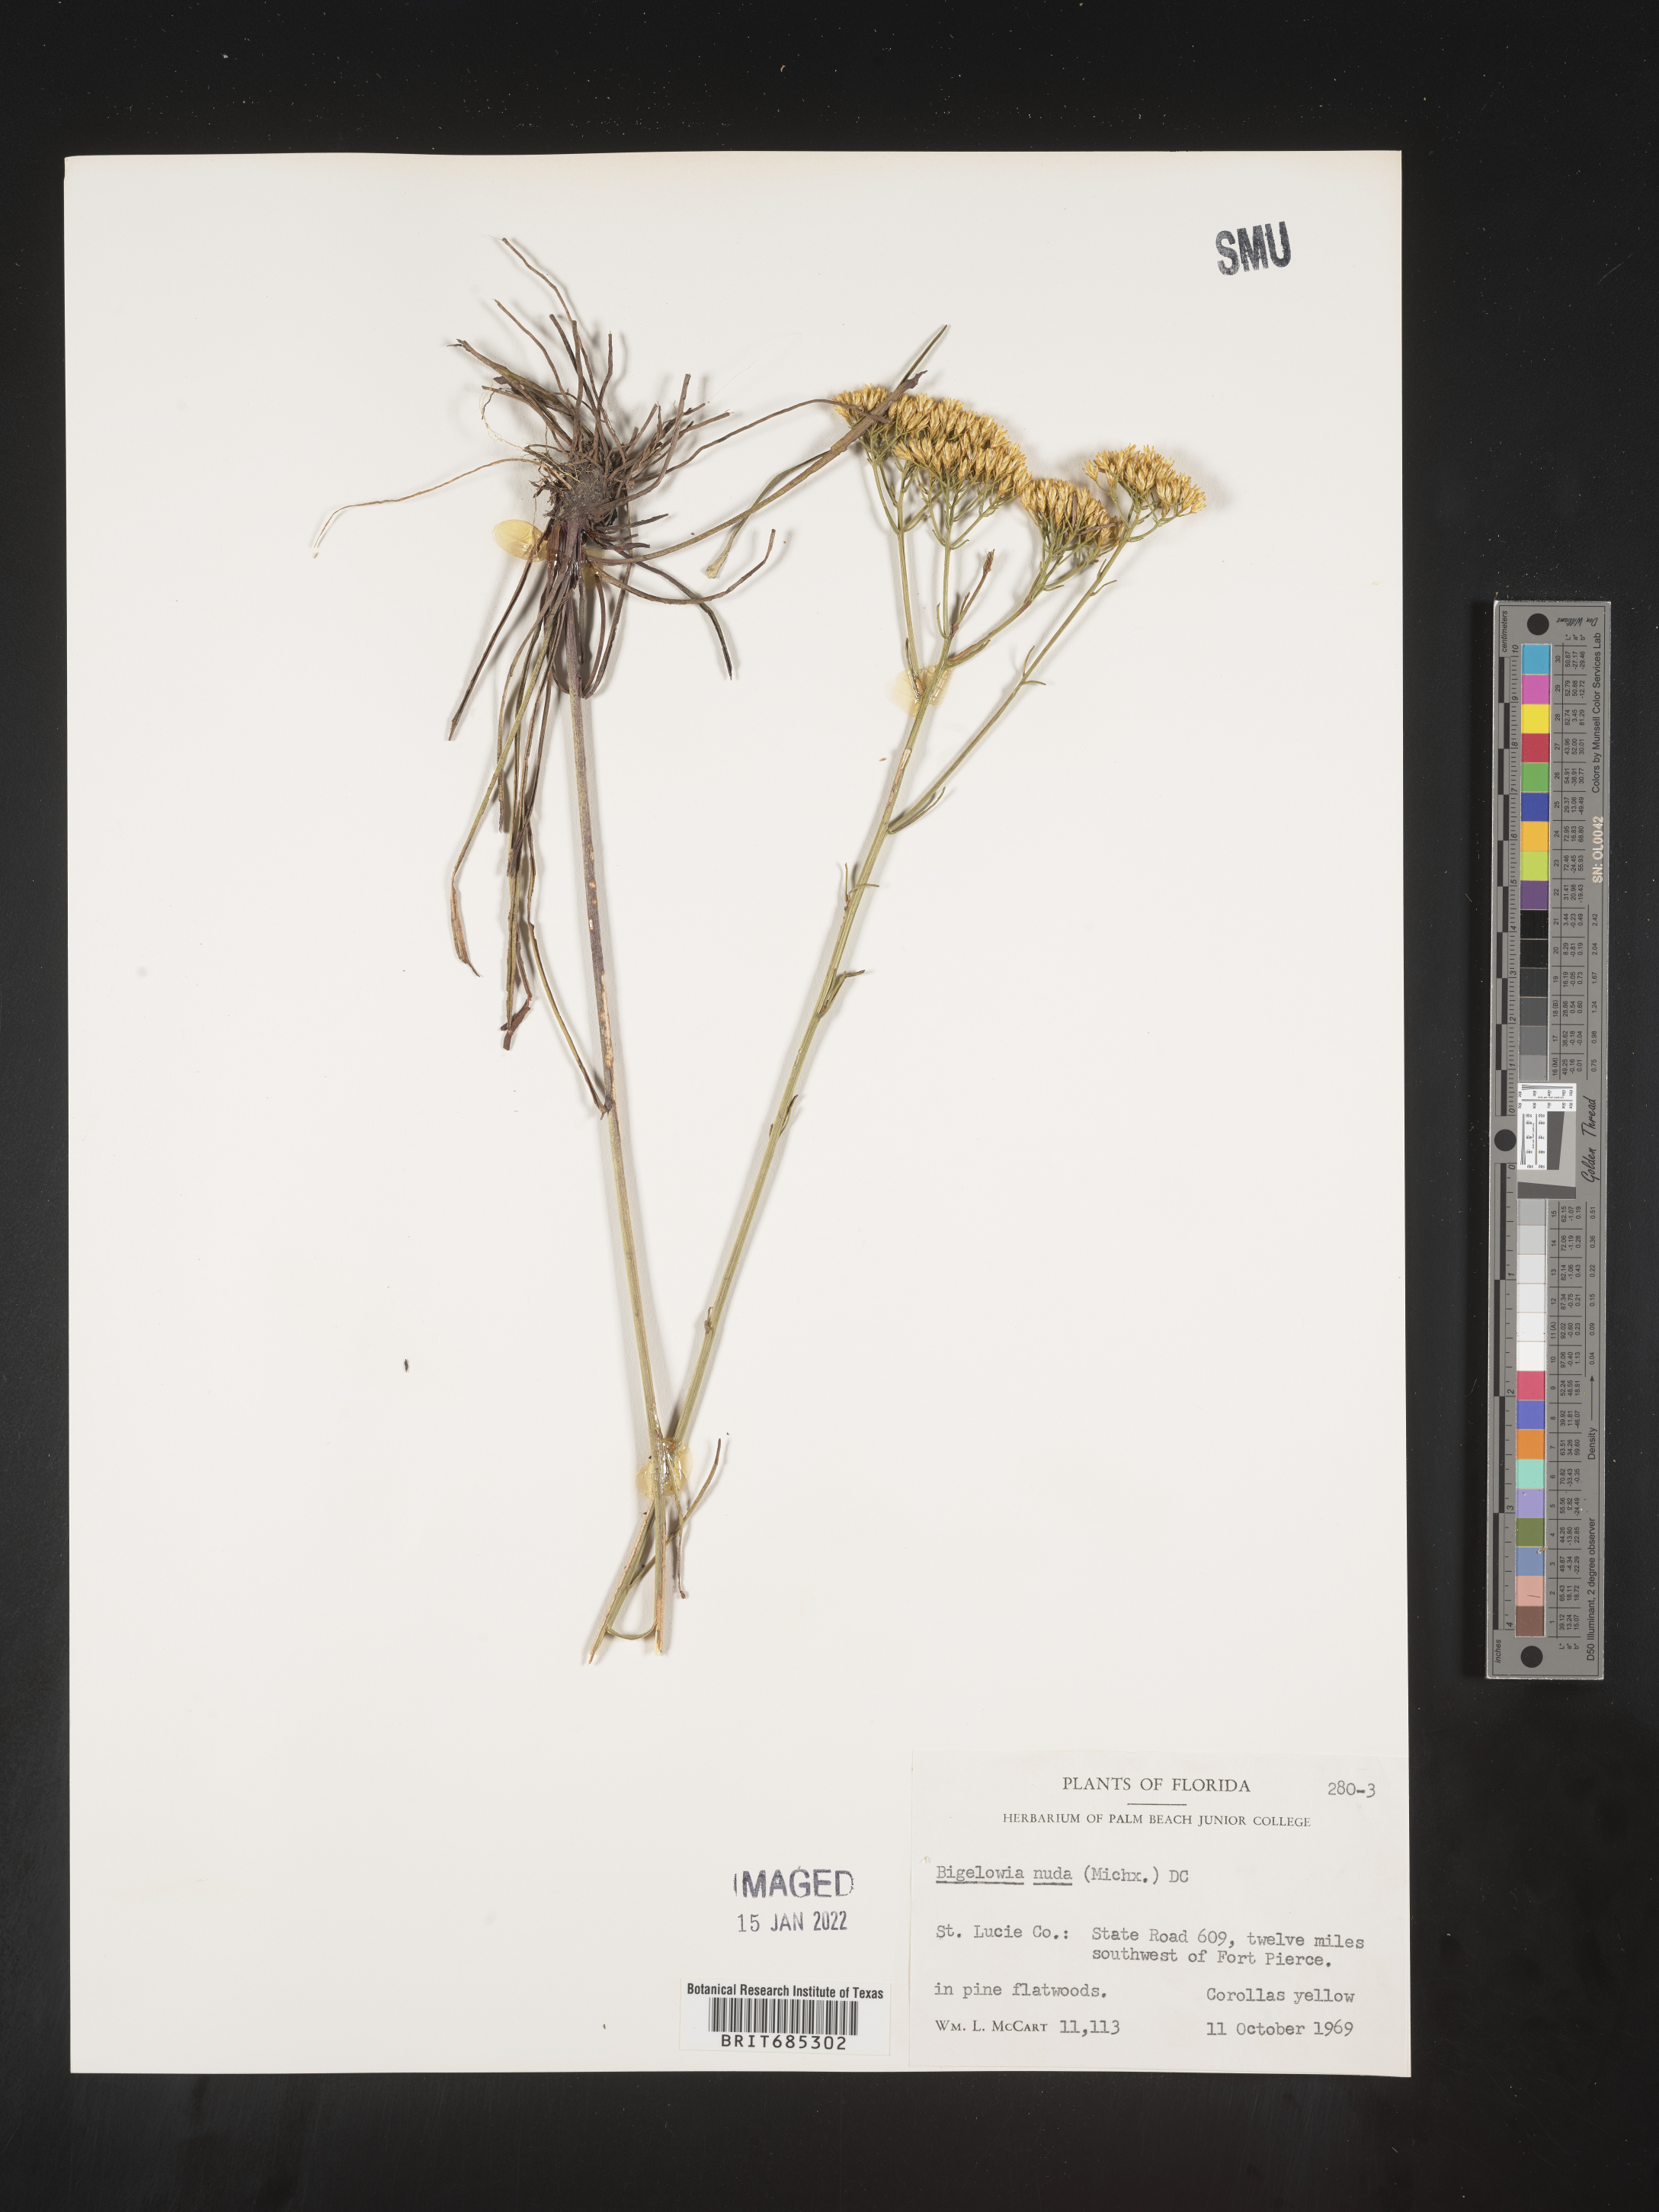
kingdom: Plantae
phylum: Tracheophyta
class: Magnoliopsida
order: Asterales
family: Asteraceae
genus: Bigelowia
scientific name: Bigelowia nudata
